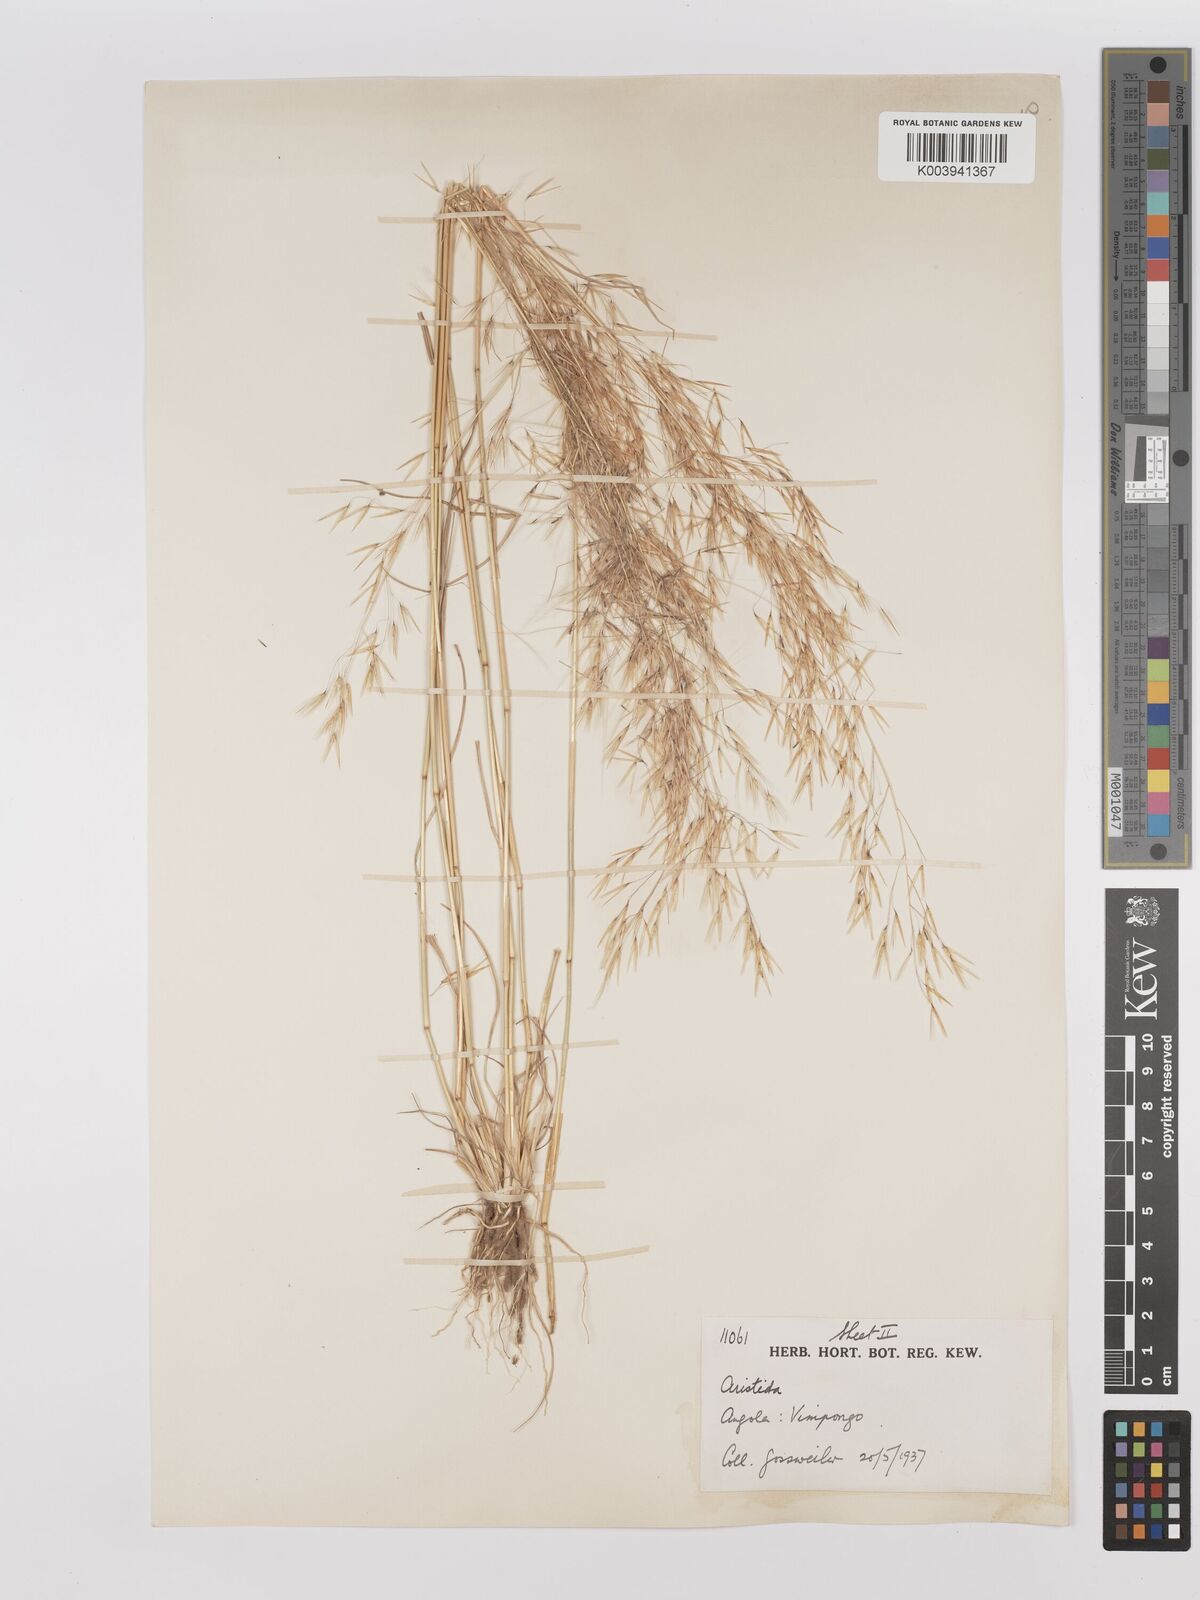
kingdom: Plantae
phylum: Tracheophyta
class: Liliopsida
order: Poales
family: Poaceae
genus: Stipagrostis
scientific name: Stipagrostis hirtigluma
